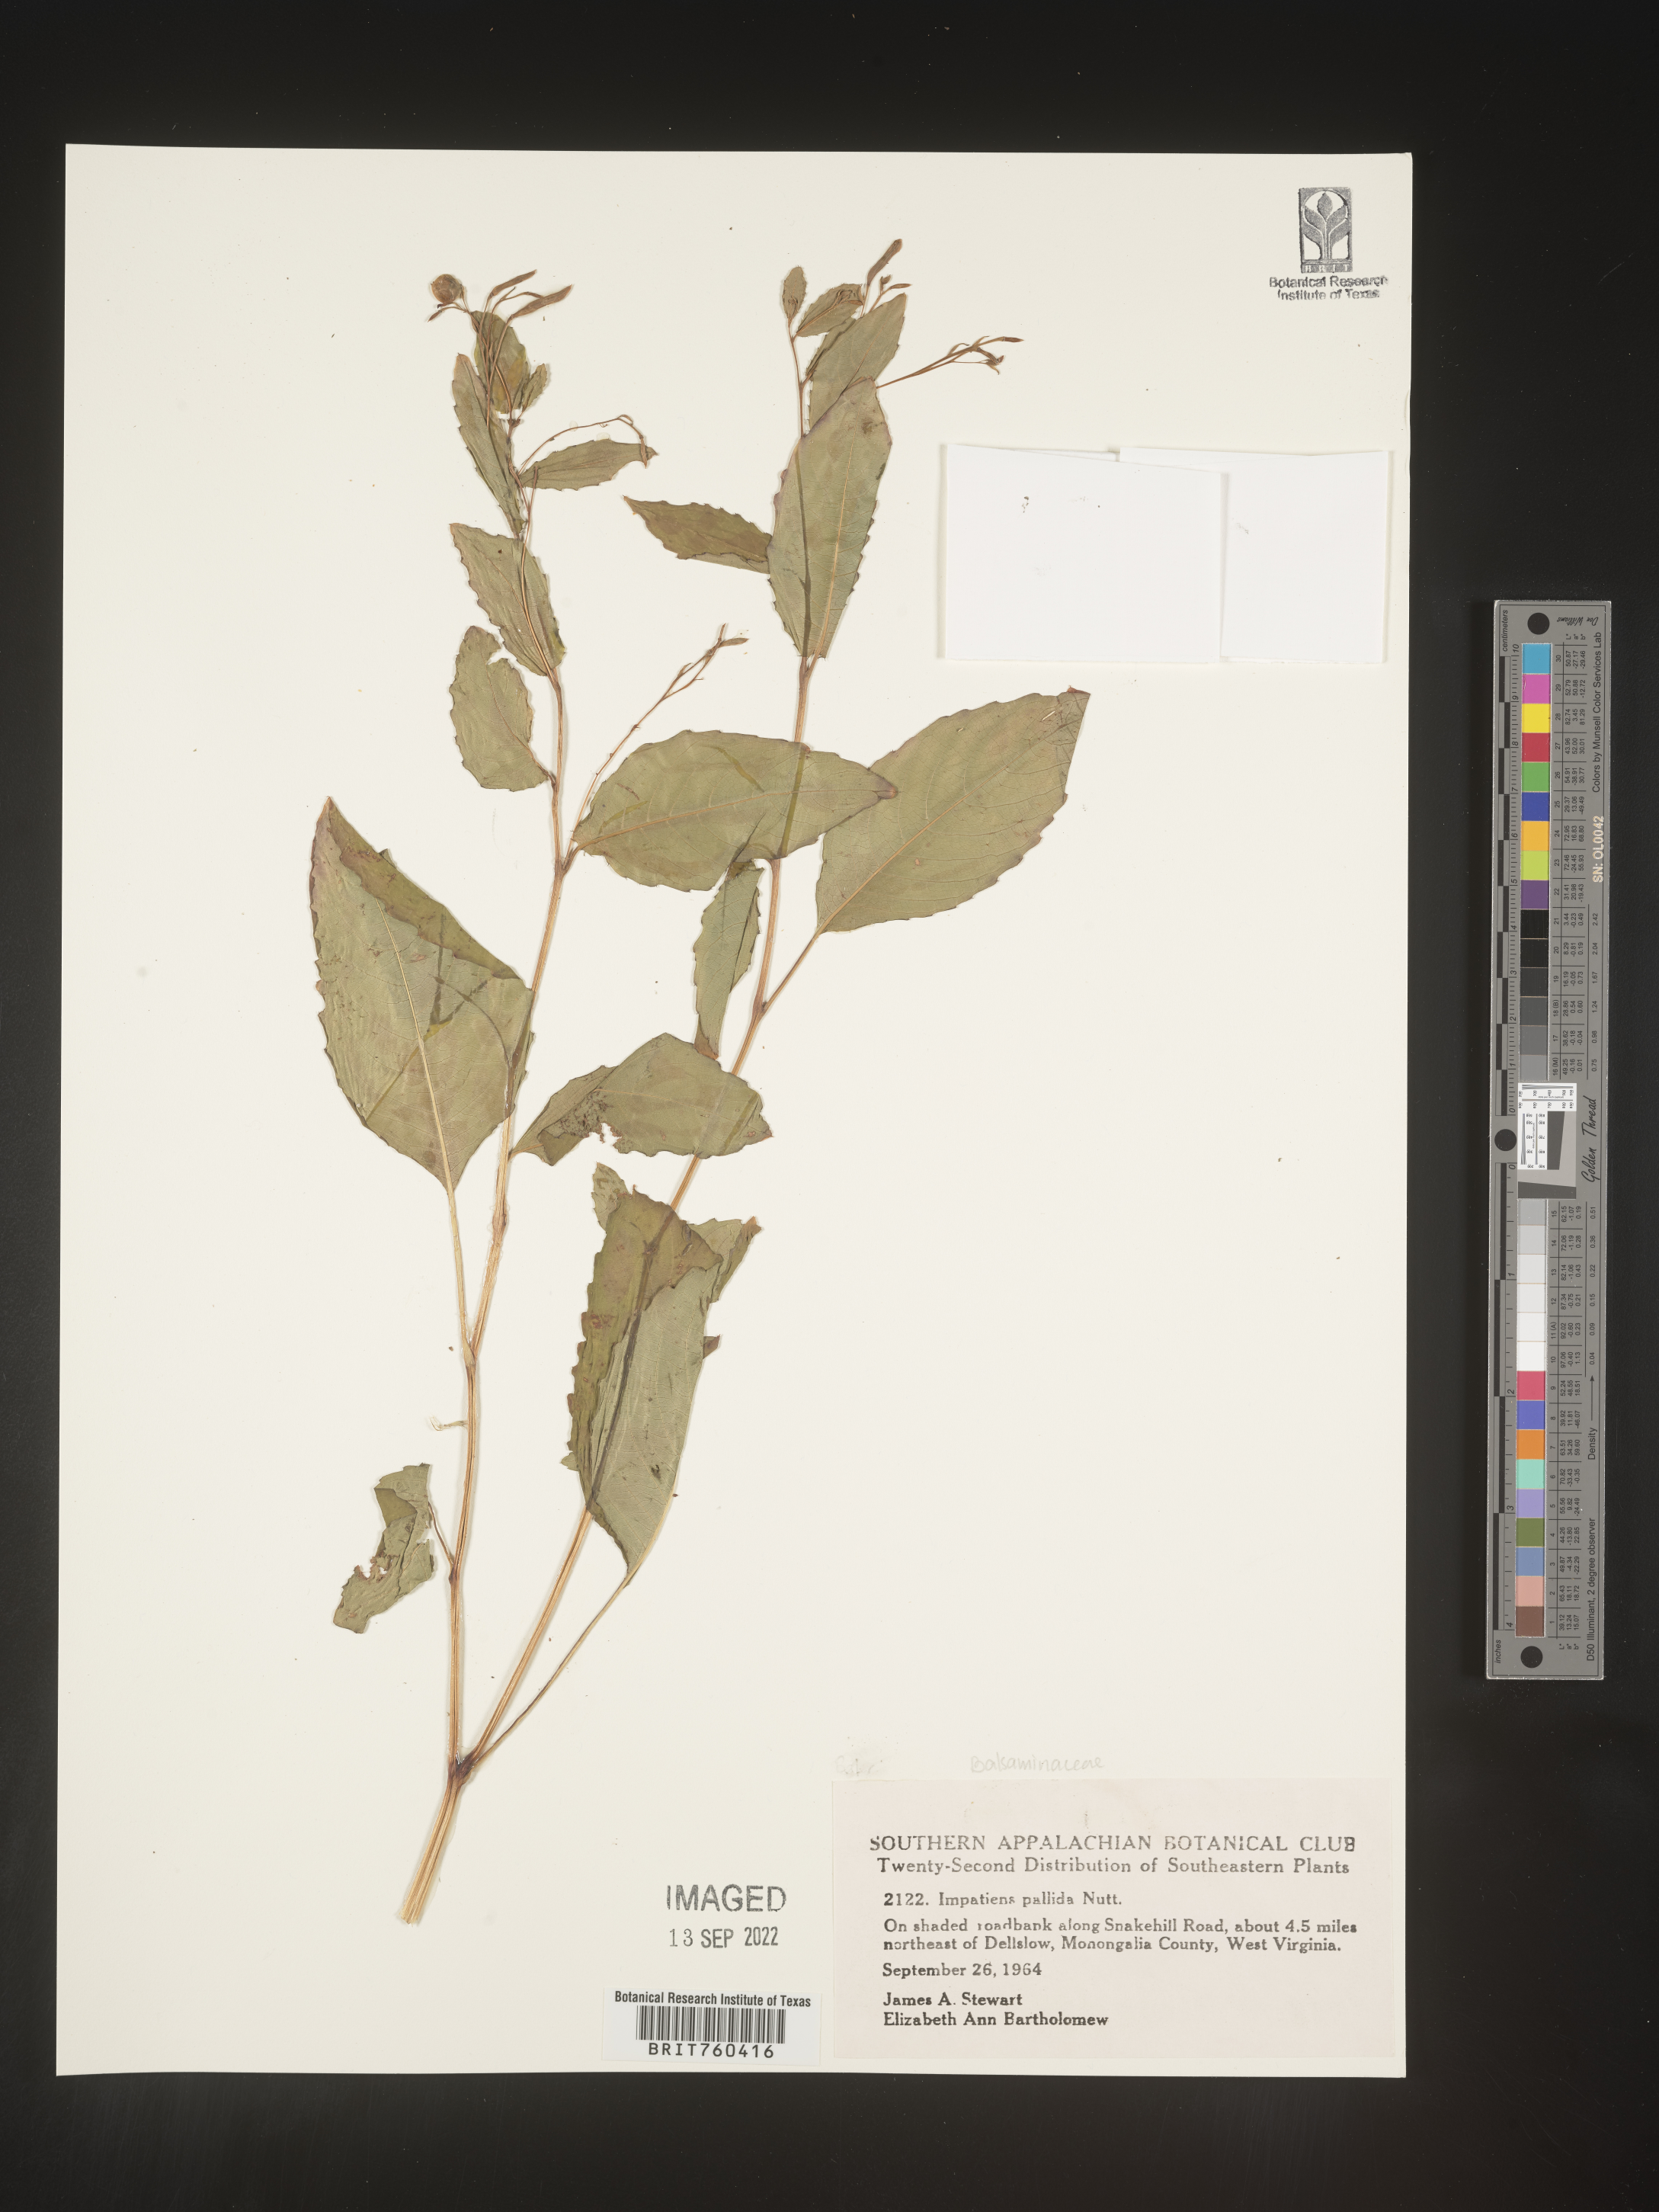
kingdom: Plantae
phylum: Tracheophyta
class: Magnoliopsida
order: Ericales
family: Balsaminaceae
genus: Impatiens
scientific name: Impatiens pallida
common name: Pale snapweed
